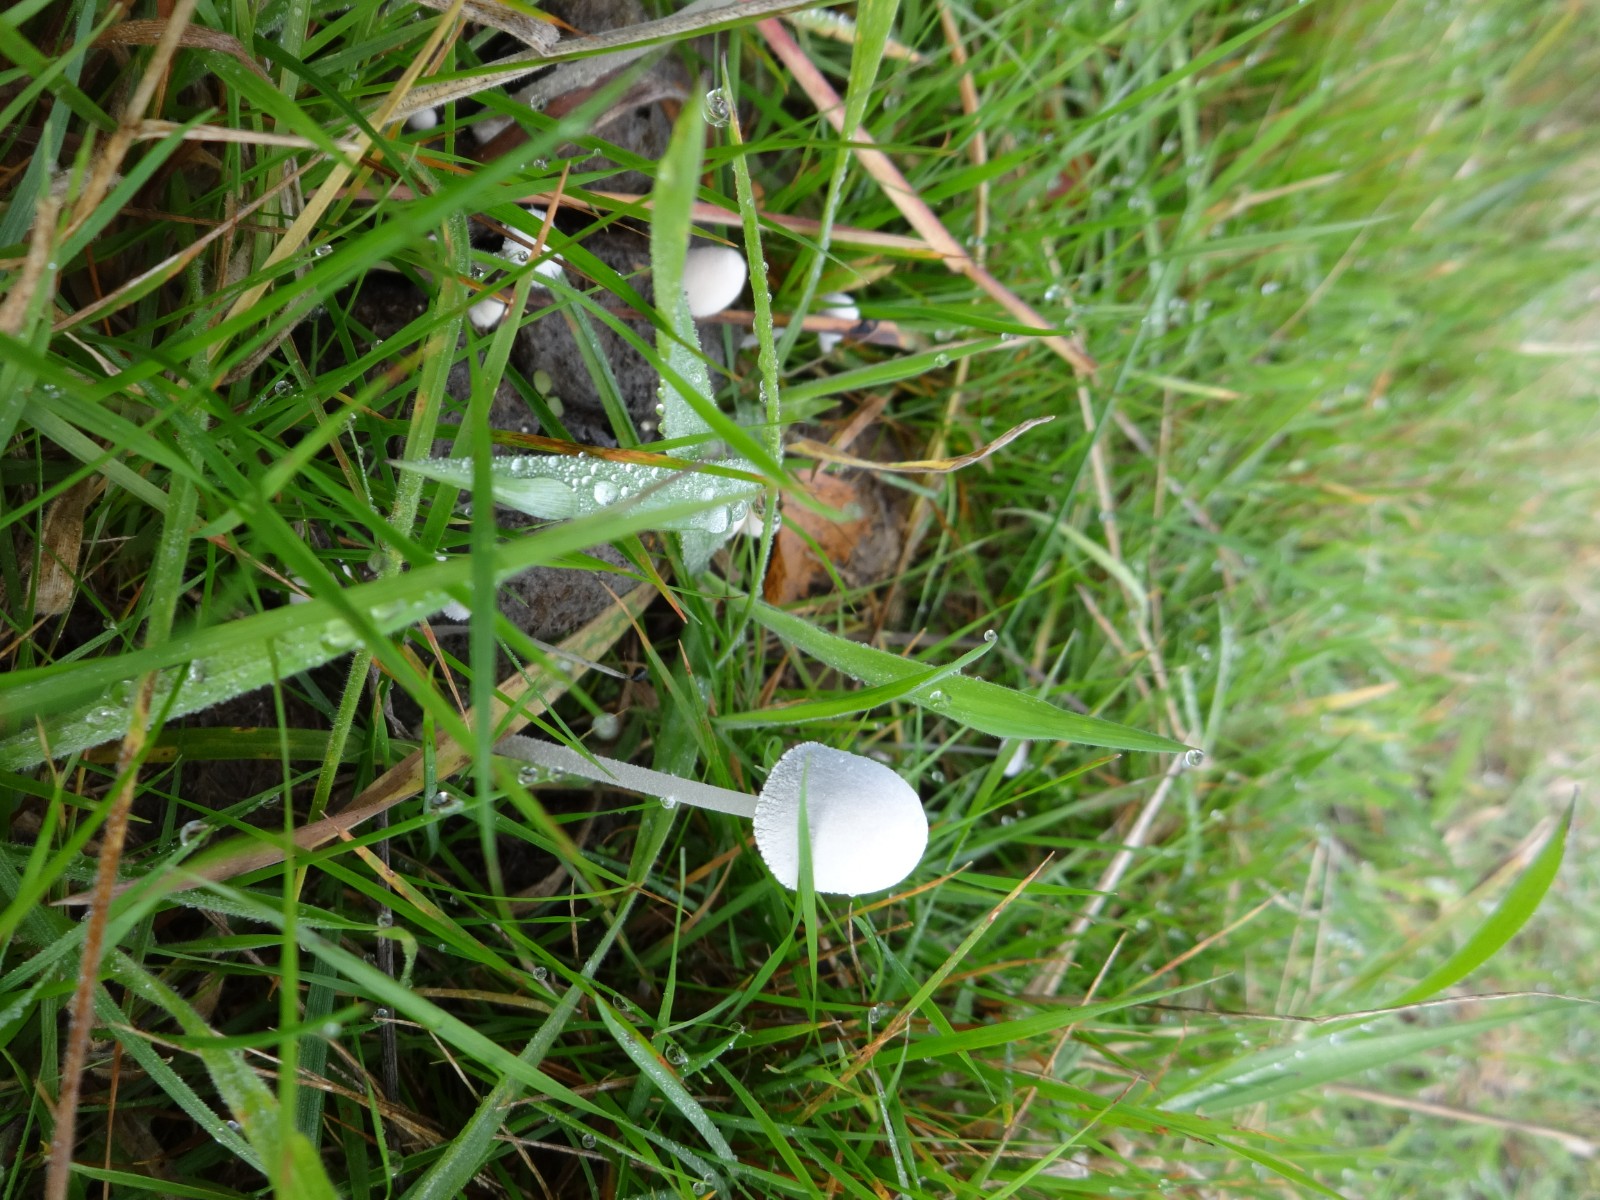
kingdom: Fungi
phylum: Basidiomycota
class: Agaricomycetes
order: Agaricales
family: Psathyrellaceae
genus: Coprinopsis
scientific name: Coprinopsis nivea
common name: snehvid blækhat
